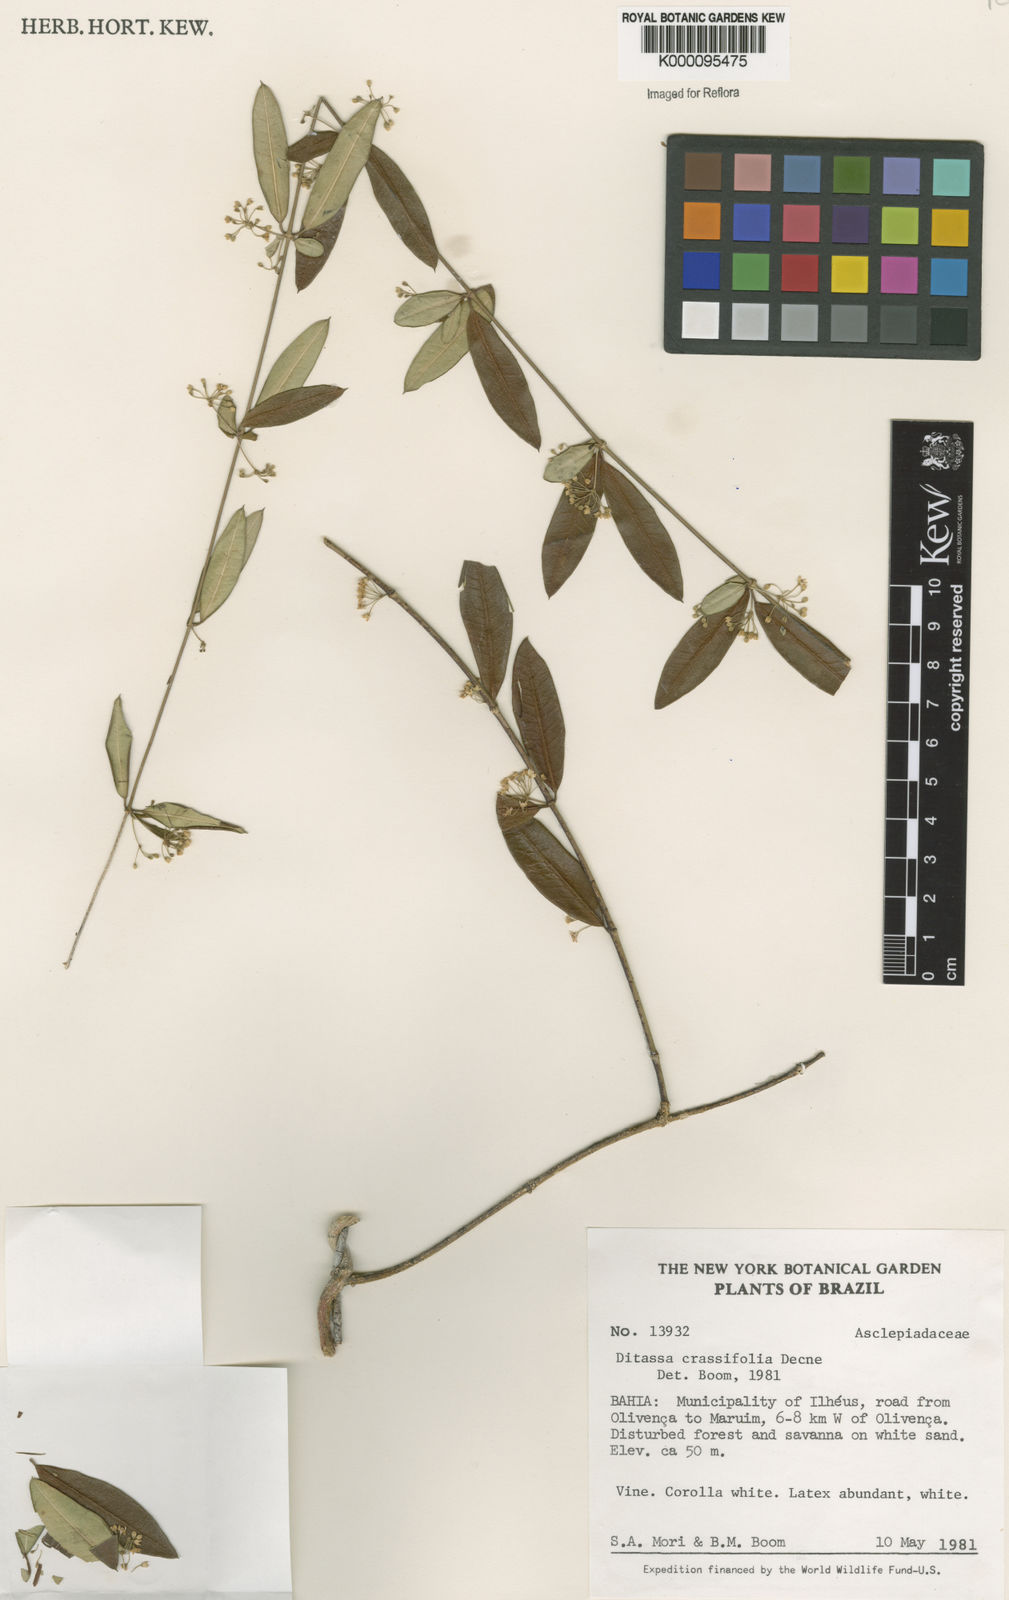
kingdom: Plantae
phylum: Tracheophyta
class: Magnoliopsida
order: Gentianales
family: Apocynaceae
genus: Ditassa
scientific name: Ditassa crassifolia
